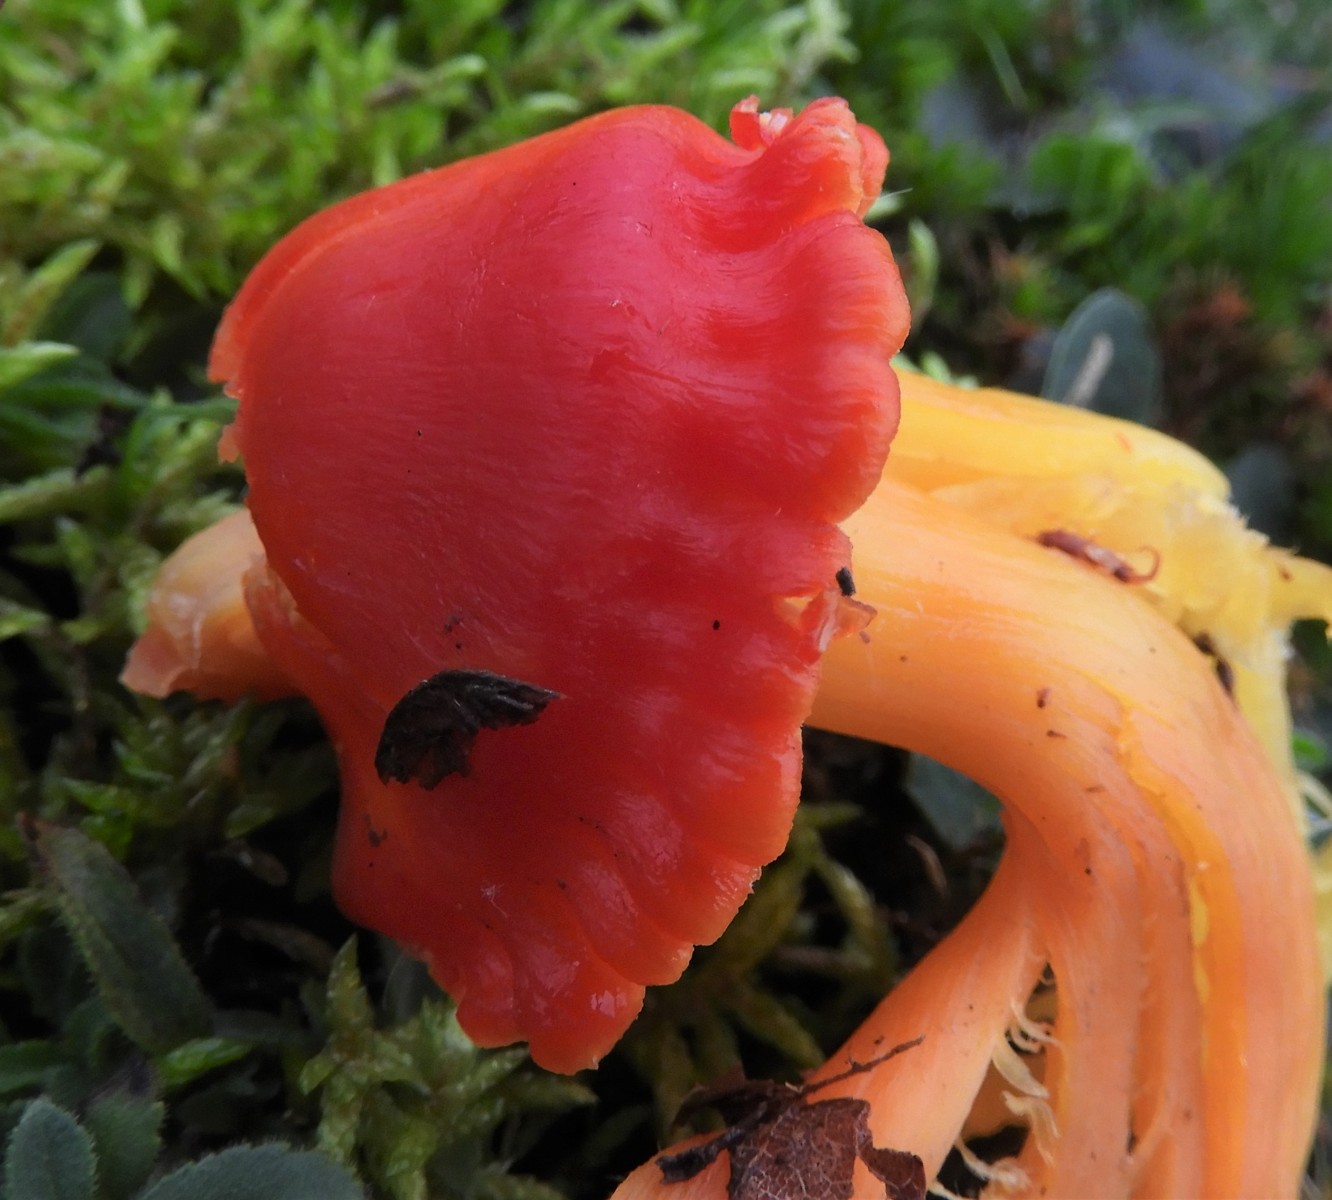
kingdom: Fungi
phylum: Basidiomycota
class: Agaricomycetes
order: Agaricales
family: Hygrophoraceae
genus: Hygrocybe
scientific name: Hygrocybe splendidissima
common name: knaldrød vokshat
